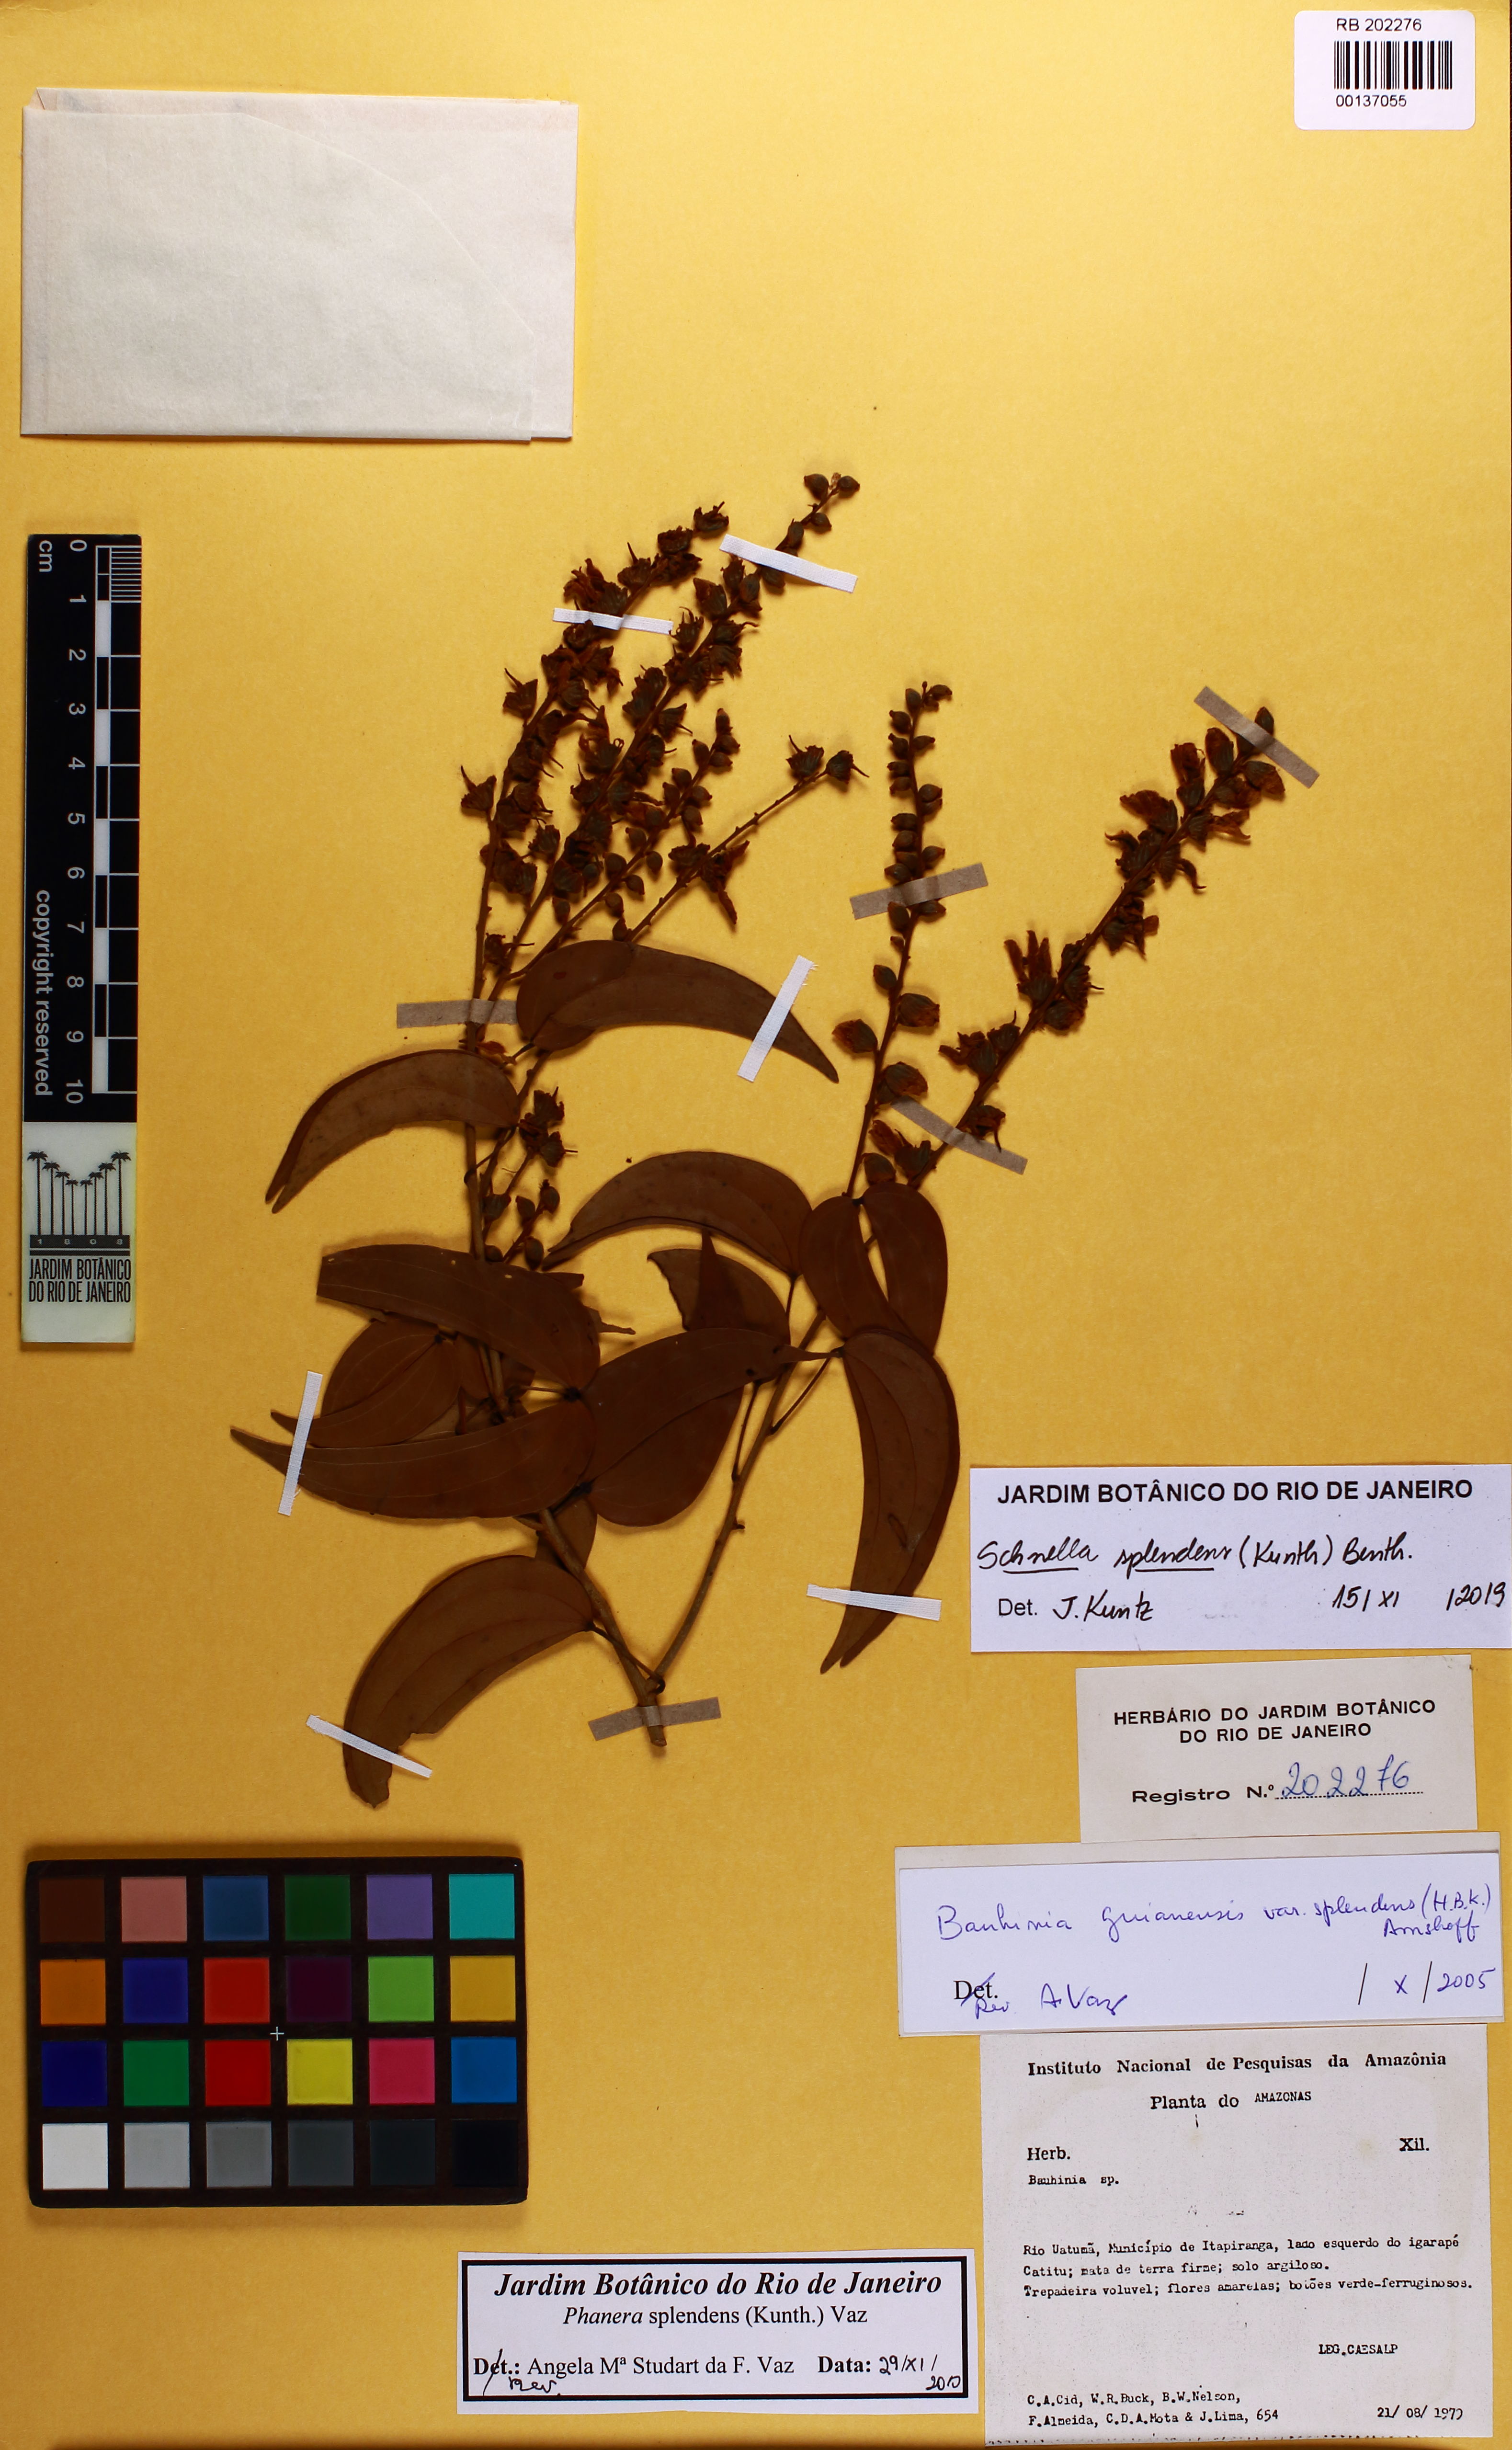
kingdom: Plantae
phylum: Tracheophyta
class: Magnoliopsida
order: Fabales
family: Fabaceae
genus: Schnella
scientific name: Schnella splendens
